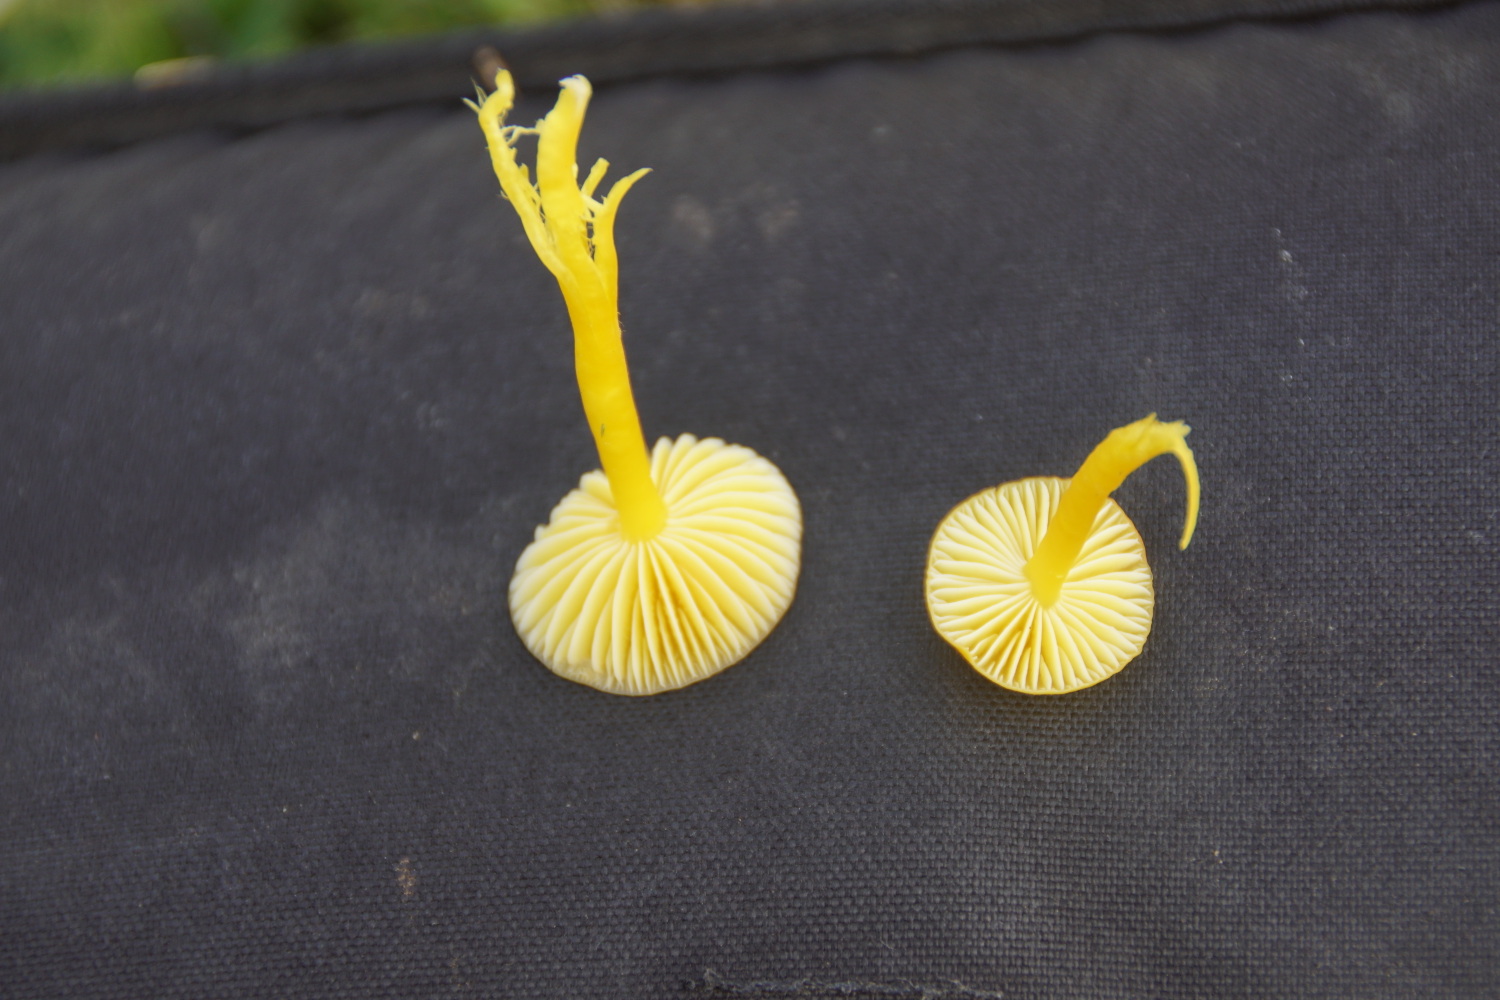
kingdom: Fungi
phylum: Basidiomycota
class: Agaricomycetes
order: Agaricales
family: Hygrophoraceae
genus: Hygrocybe
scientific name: Hygrocybe ceracea
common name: voksgul vokshat
